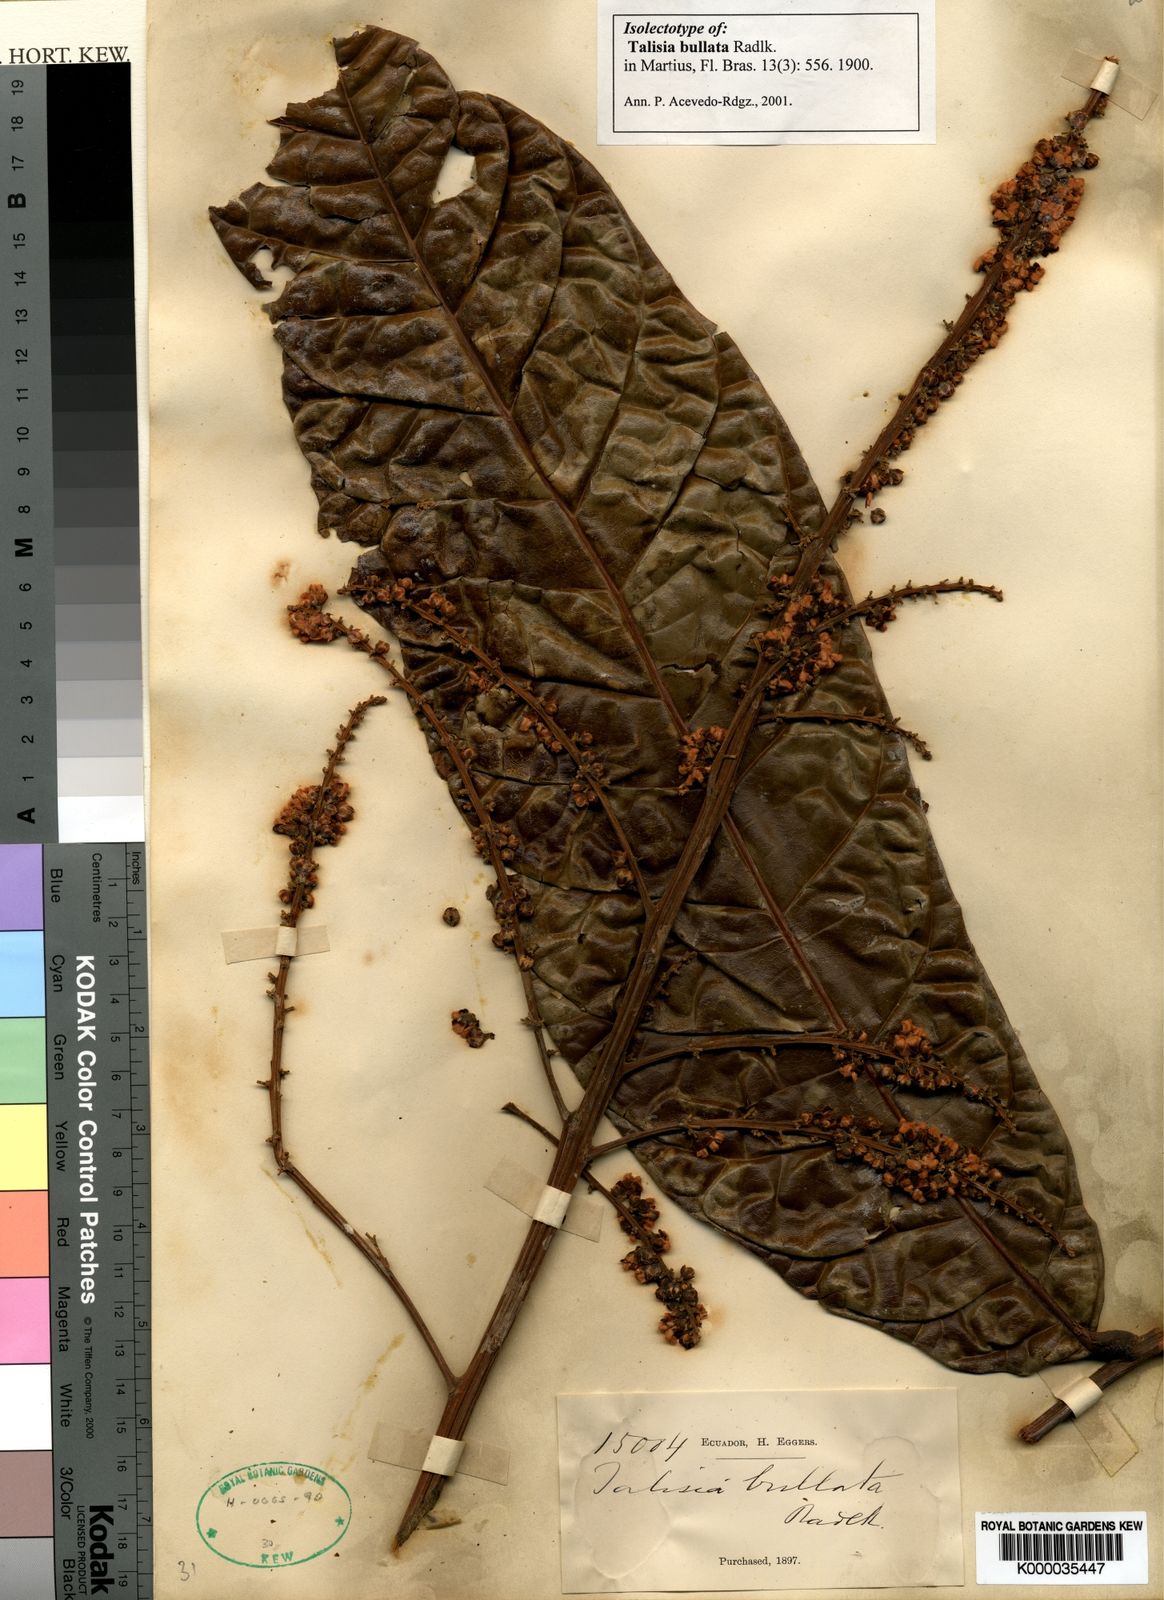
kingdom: Plantae
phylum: Tracheophyta
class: Magnoliopsida
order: Sapindales
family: Sapindaceae
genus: Talisia
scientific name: Talisia bullata
